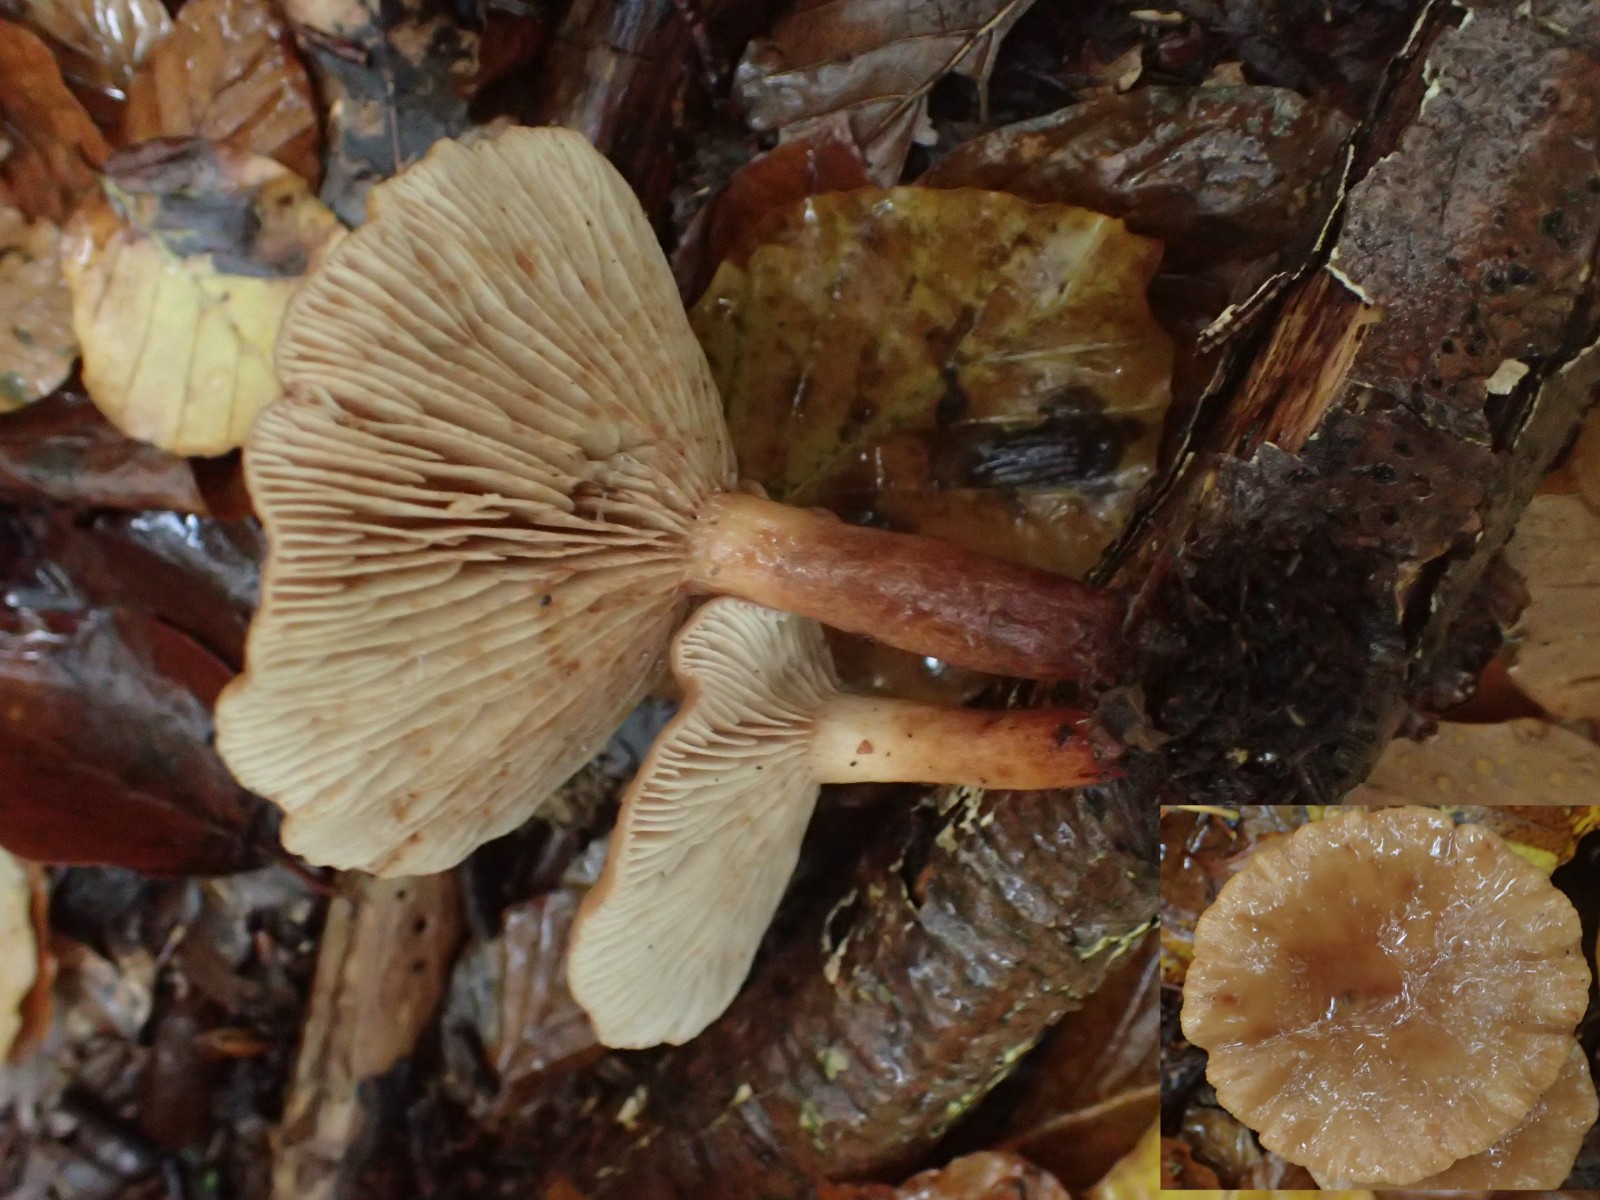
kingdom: Fungi
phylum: Basidiomycota
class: Agaricomycetes
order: Russulales
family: Russulaceae
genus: Lactarius
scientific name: Lactarius tabidus
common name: rynket mælkehat
